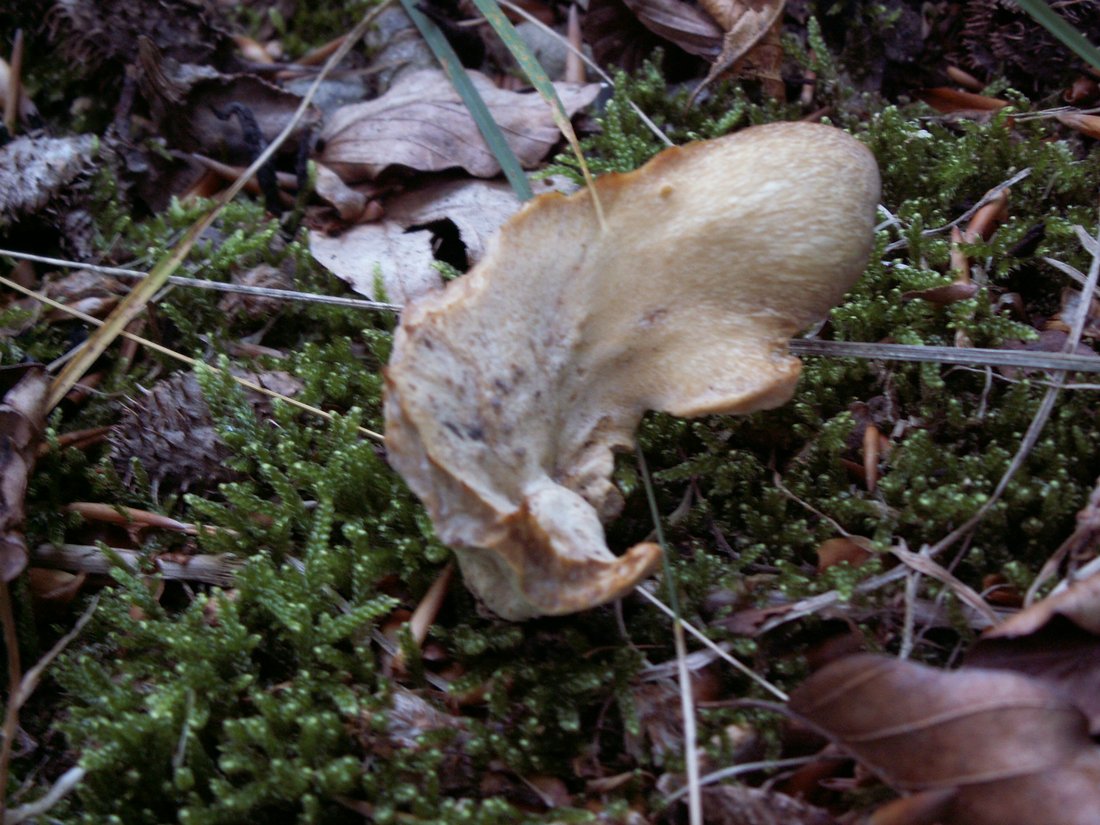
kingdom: Fungi
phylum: Basidiomycota
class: Agaricomycetes
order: Polyporales
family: Polyporaceae
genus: Cerioporus
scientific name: Cerioporus varius
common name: foranderlig stilkporesvamp
